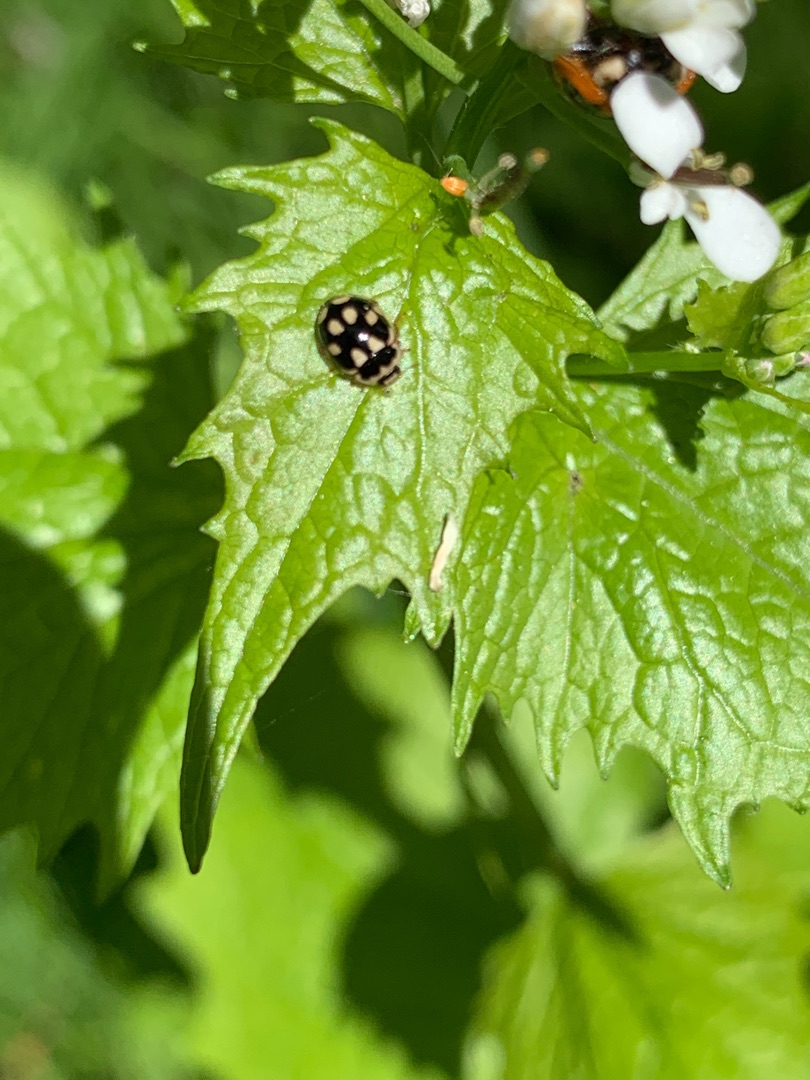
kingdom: Animalia
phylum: Arthropoda
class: Insecta
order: Coleoptera
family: Coccinellidae
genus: Propylaea
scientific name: Propylaea quatuordecimpunctata
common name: Skakbræt
